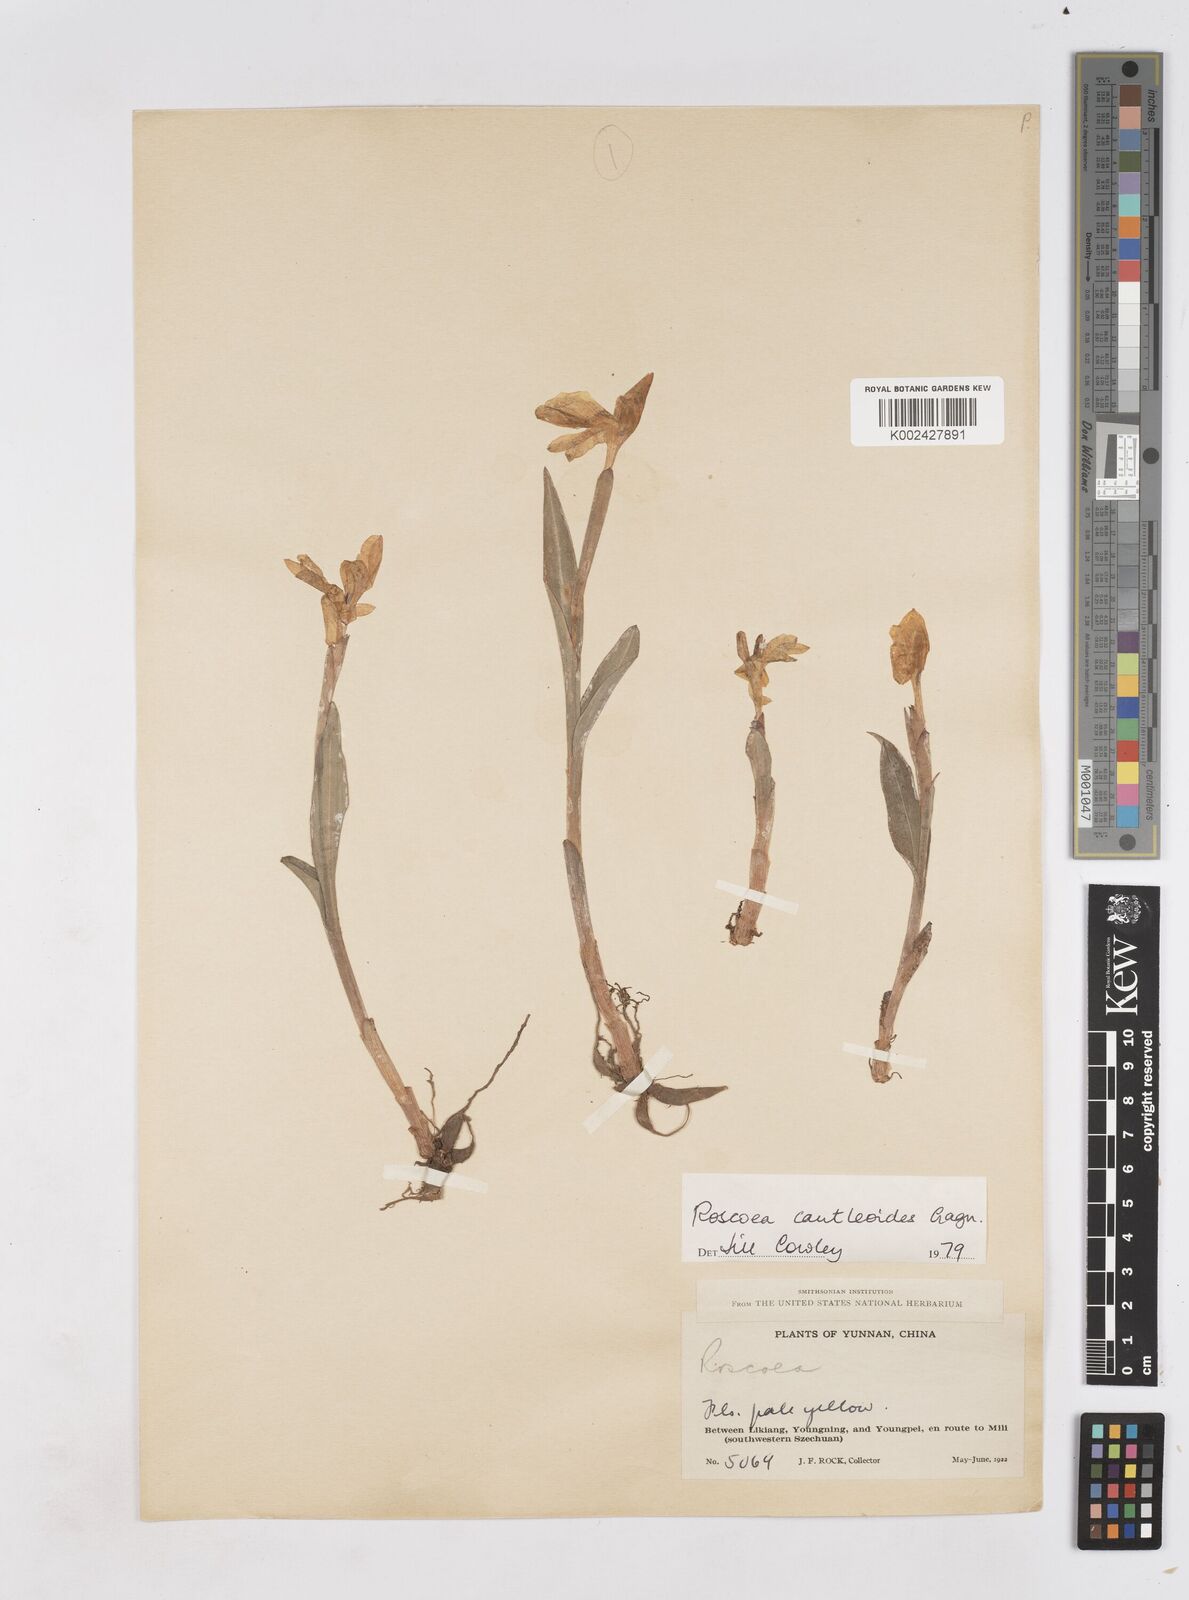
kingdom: Plantae
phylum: Tracheophyta
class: Liliopsida
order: Zingiberales
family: Zingiberaceae
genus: Roscoea
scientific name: Roscoea cautleyoides
